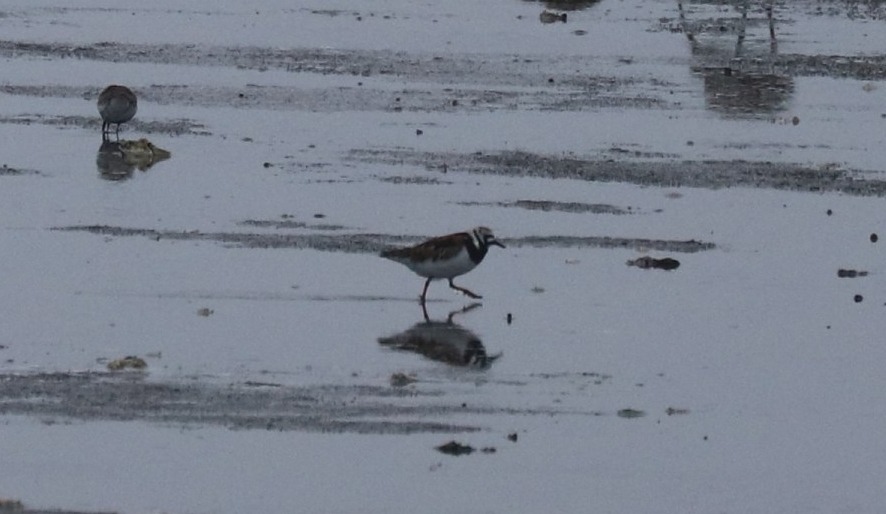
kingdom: Animalia
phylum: Chordata
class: Aves
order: Charadriiformes
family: Scolopacidae
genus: Arenaria
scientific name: Arenaria interpres
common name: Stenvender
